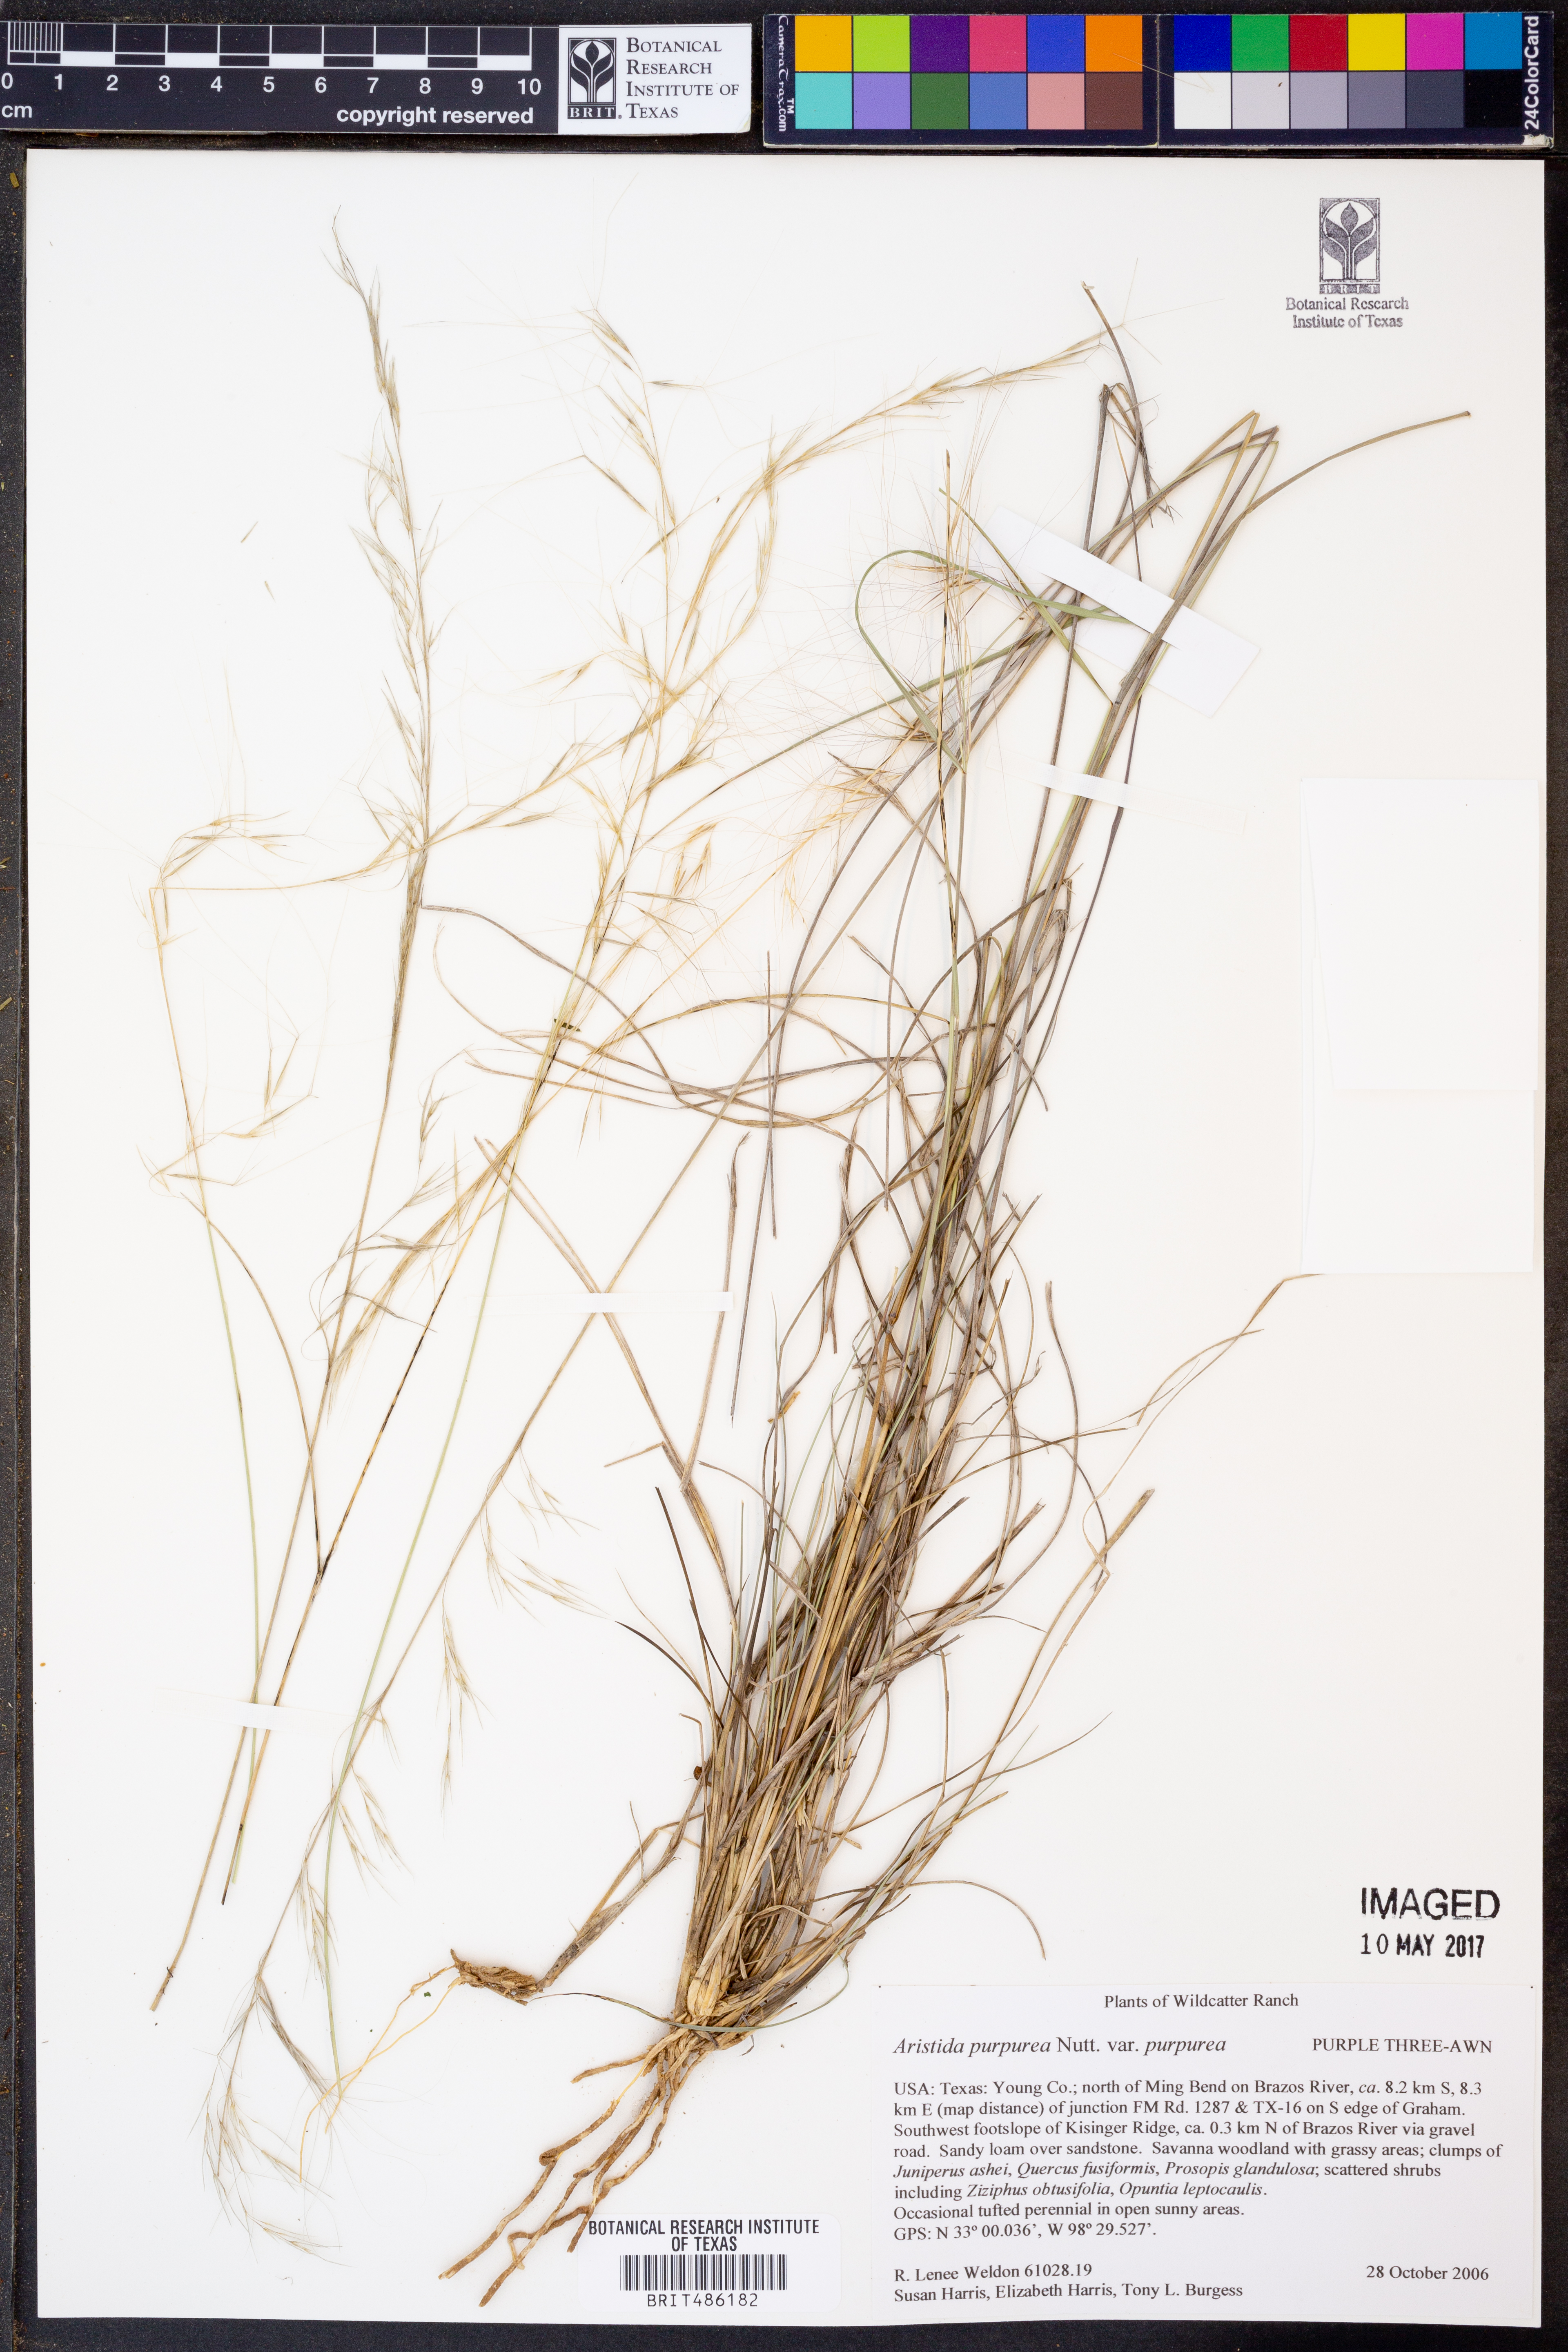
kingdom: Plantae
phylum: Tracheophyta
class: Liliopsida
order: Poales
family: Poaceae
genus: Aristida
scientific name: Aristida purpurea
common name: Purple threeawn
